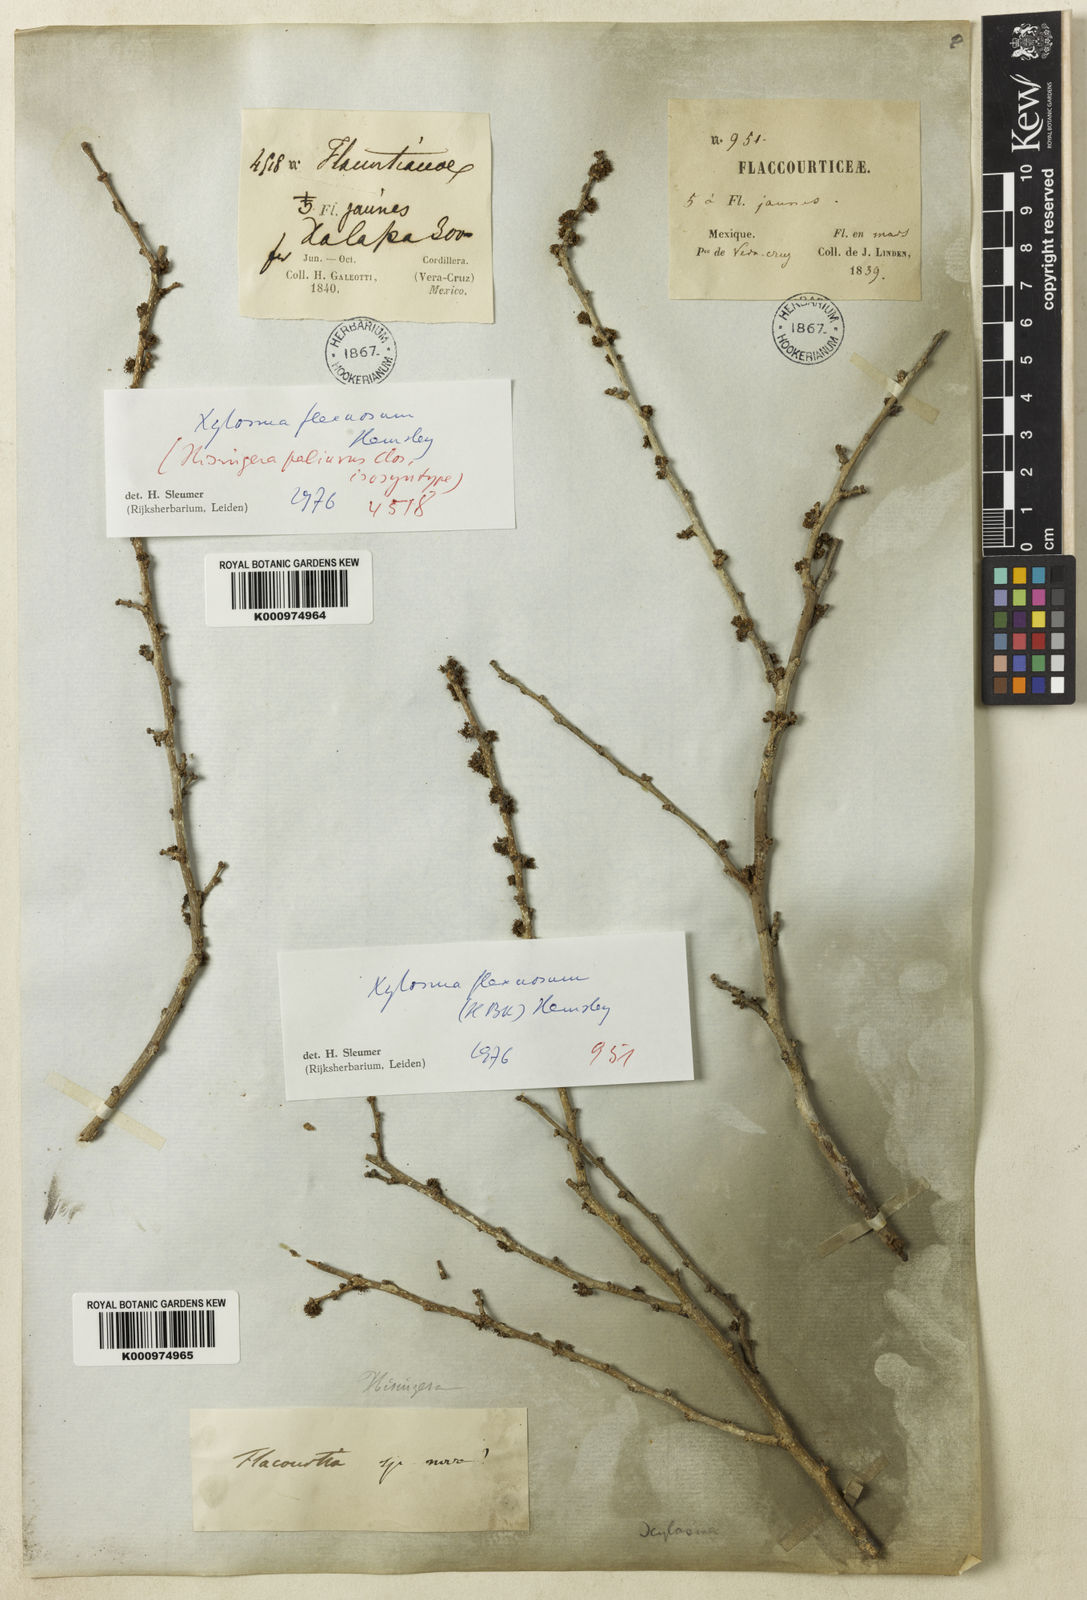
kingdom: Plantae
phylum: Tracheophyta
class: Magnoliopsida
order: Malpighiales
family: Salicaceae
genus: Xylosma
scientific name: Xylosma flexuosa
